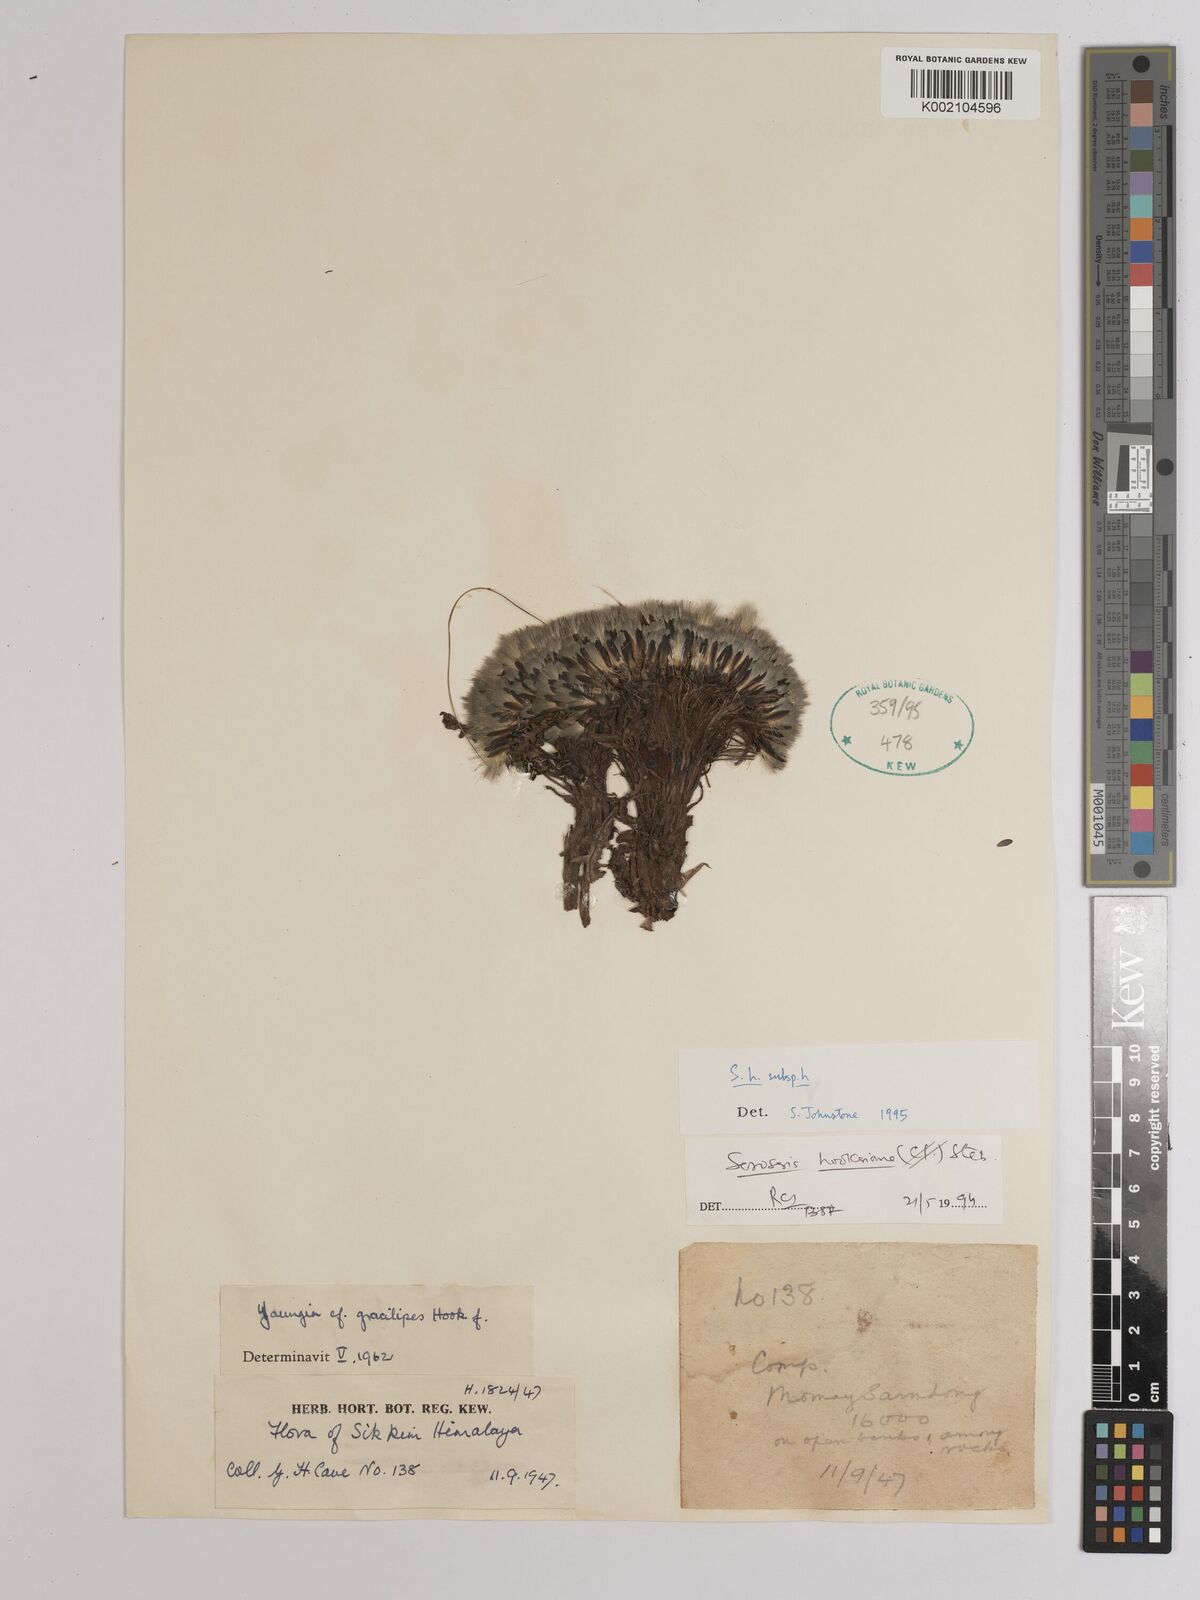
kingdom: Plantae
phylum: Tracheophyta
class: Magnoliopsida
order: Asterales
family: Asteraceae
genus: Soroseris
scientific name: Soroseris hookeriana
